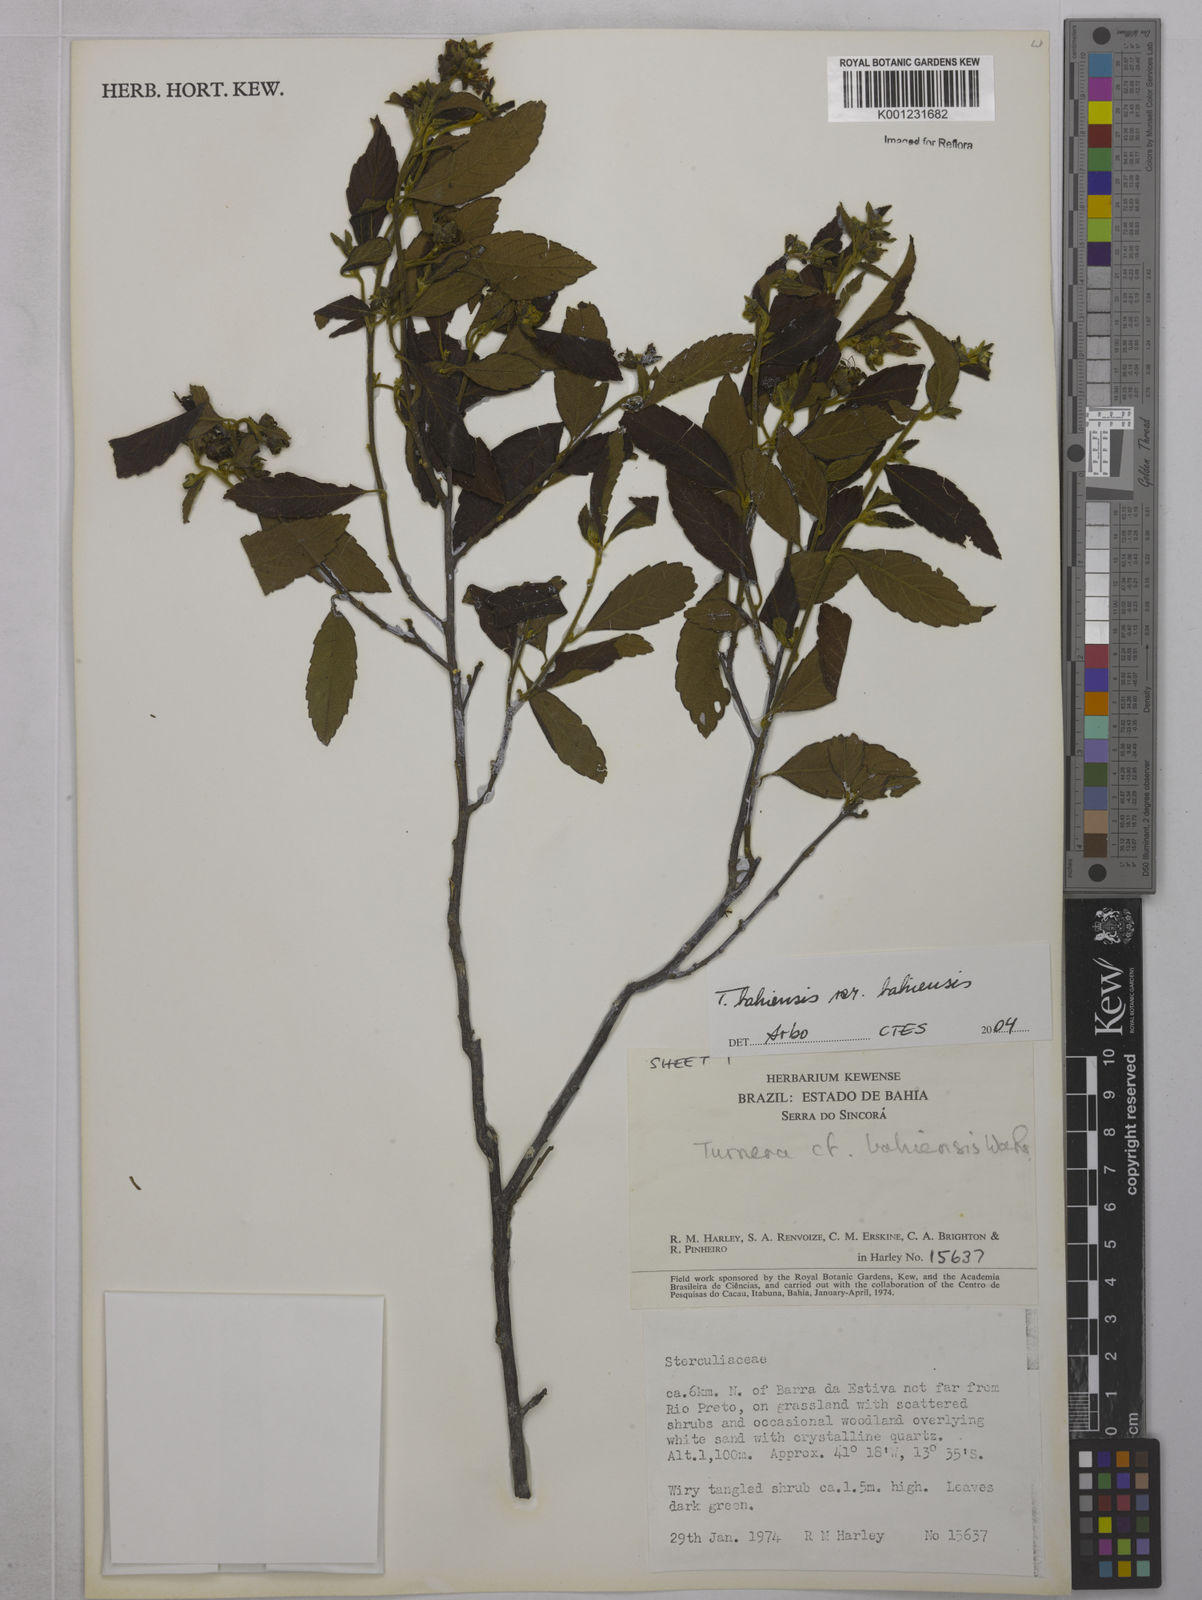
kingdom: Plantae
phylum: Tracheophyta
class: Magnoliopsida
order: Malpighiales
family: Turneraceae
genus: Turnera
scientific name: Turnera bahiensis
